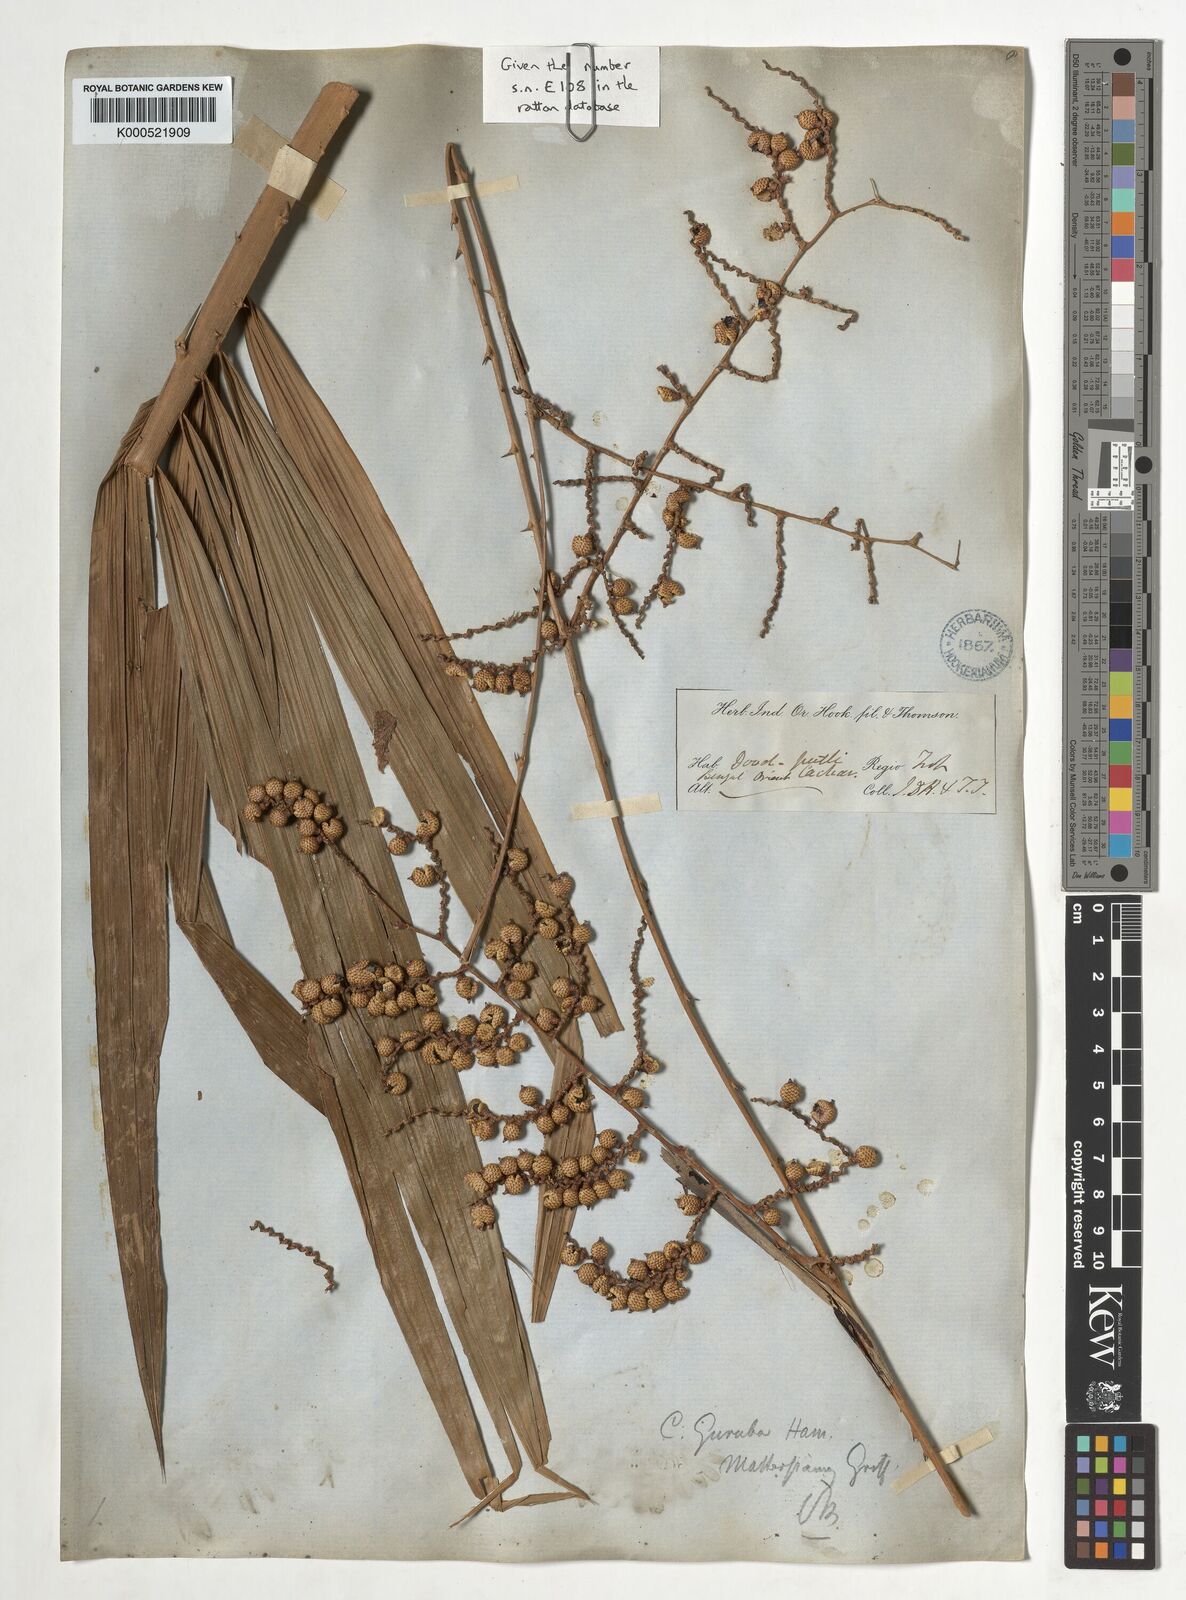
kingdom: Plantae
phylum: Tracheophyta
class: Liliopsida
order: Arecales
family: Arecaceae
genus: Calamus
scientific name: Calamus
